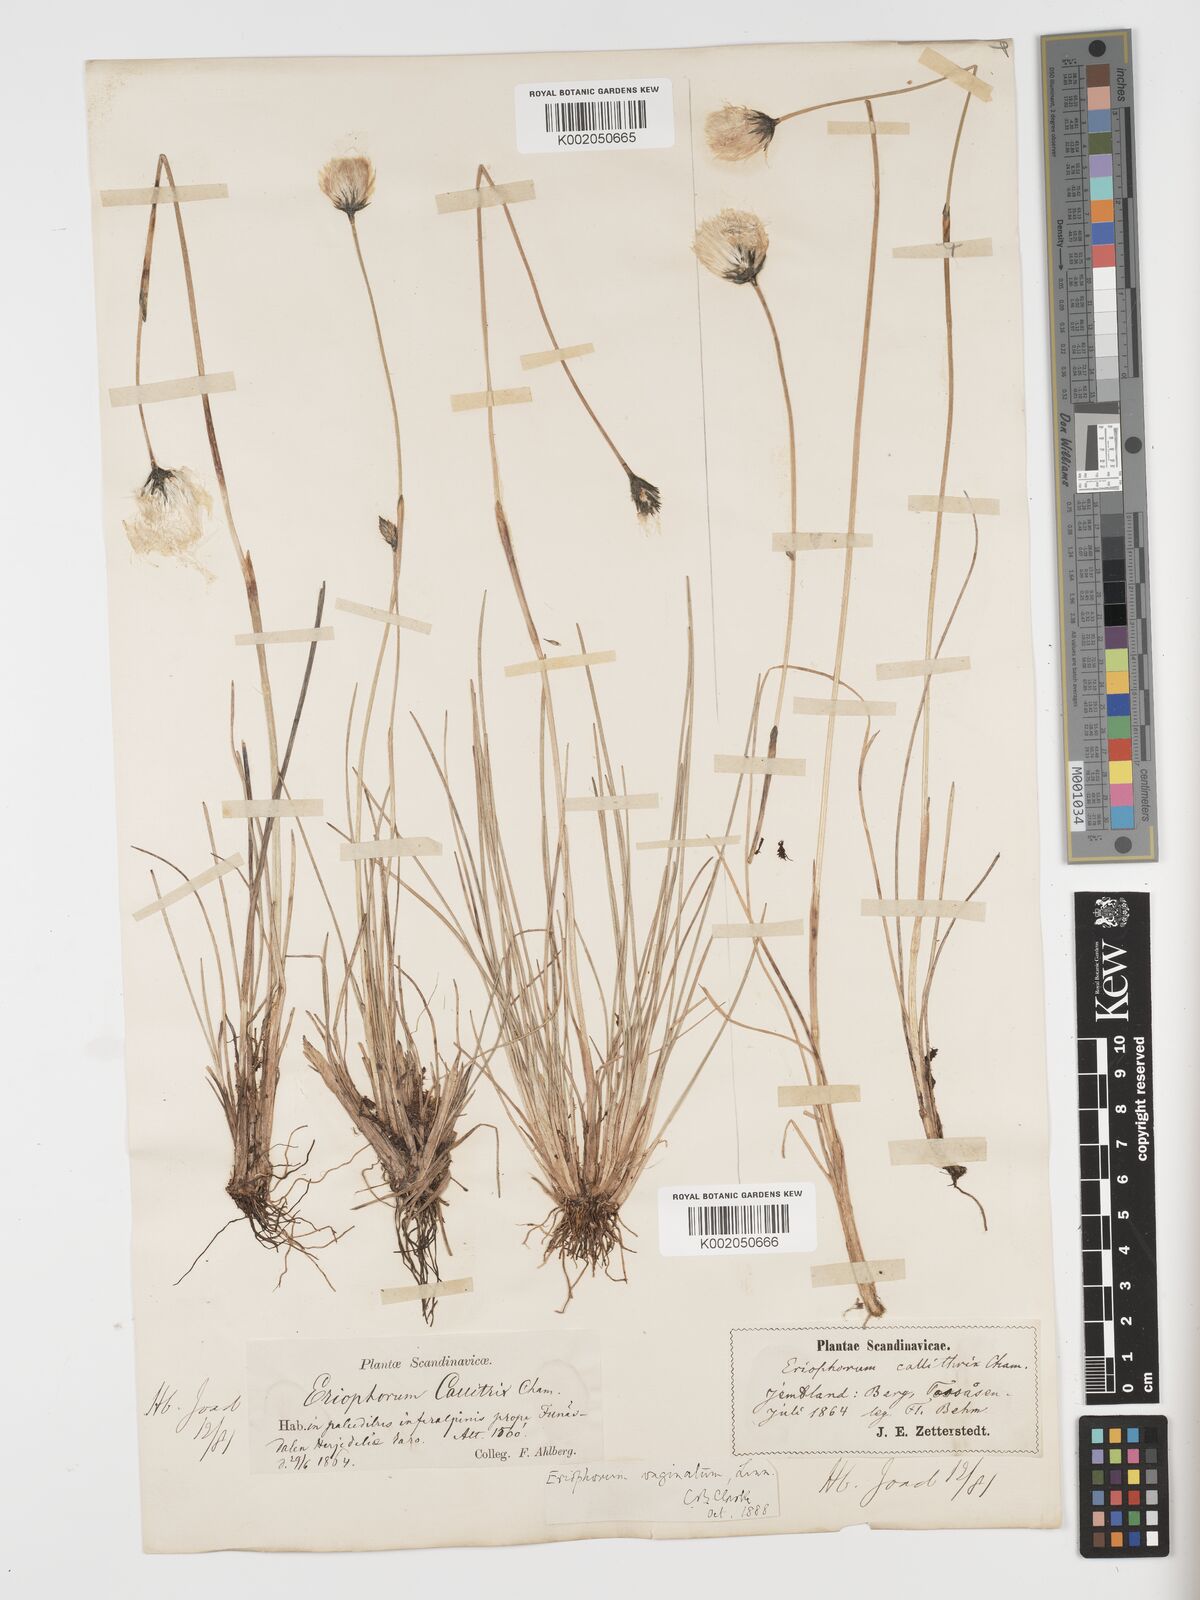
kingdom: Plantae
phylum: Tracheophyta
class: Liliopsida
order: Poales
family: Cyperaceae
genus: Eriophorum
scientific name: Eriophorum vaginatum
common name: Hare's-tail cottongrass
